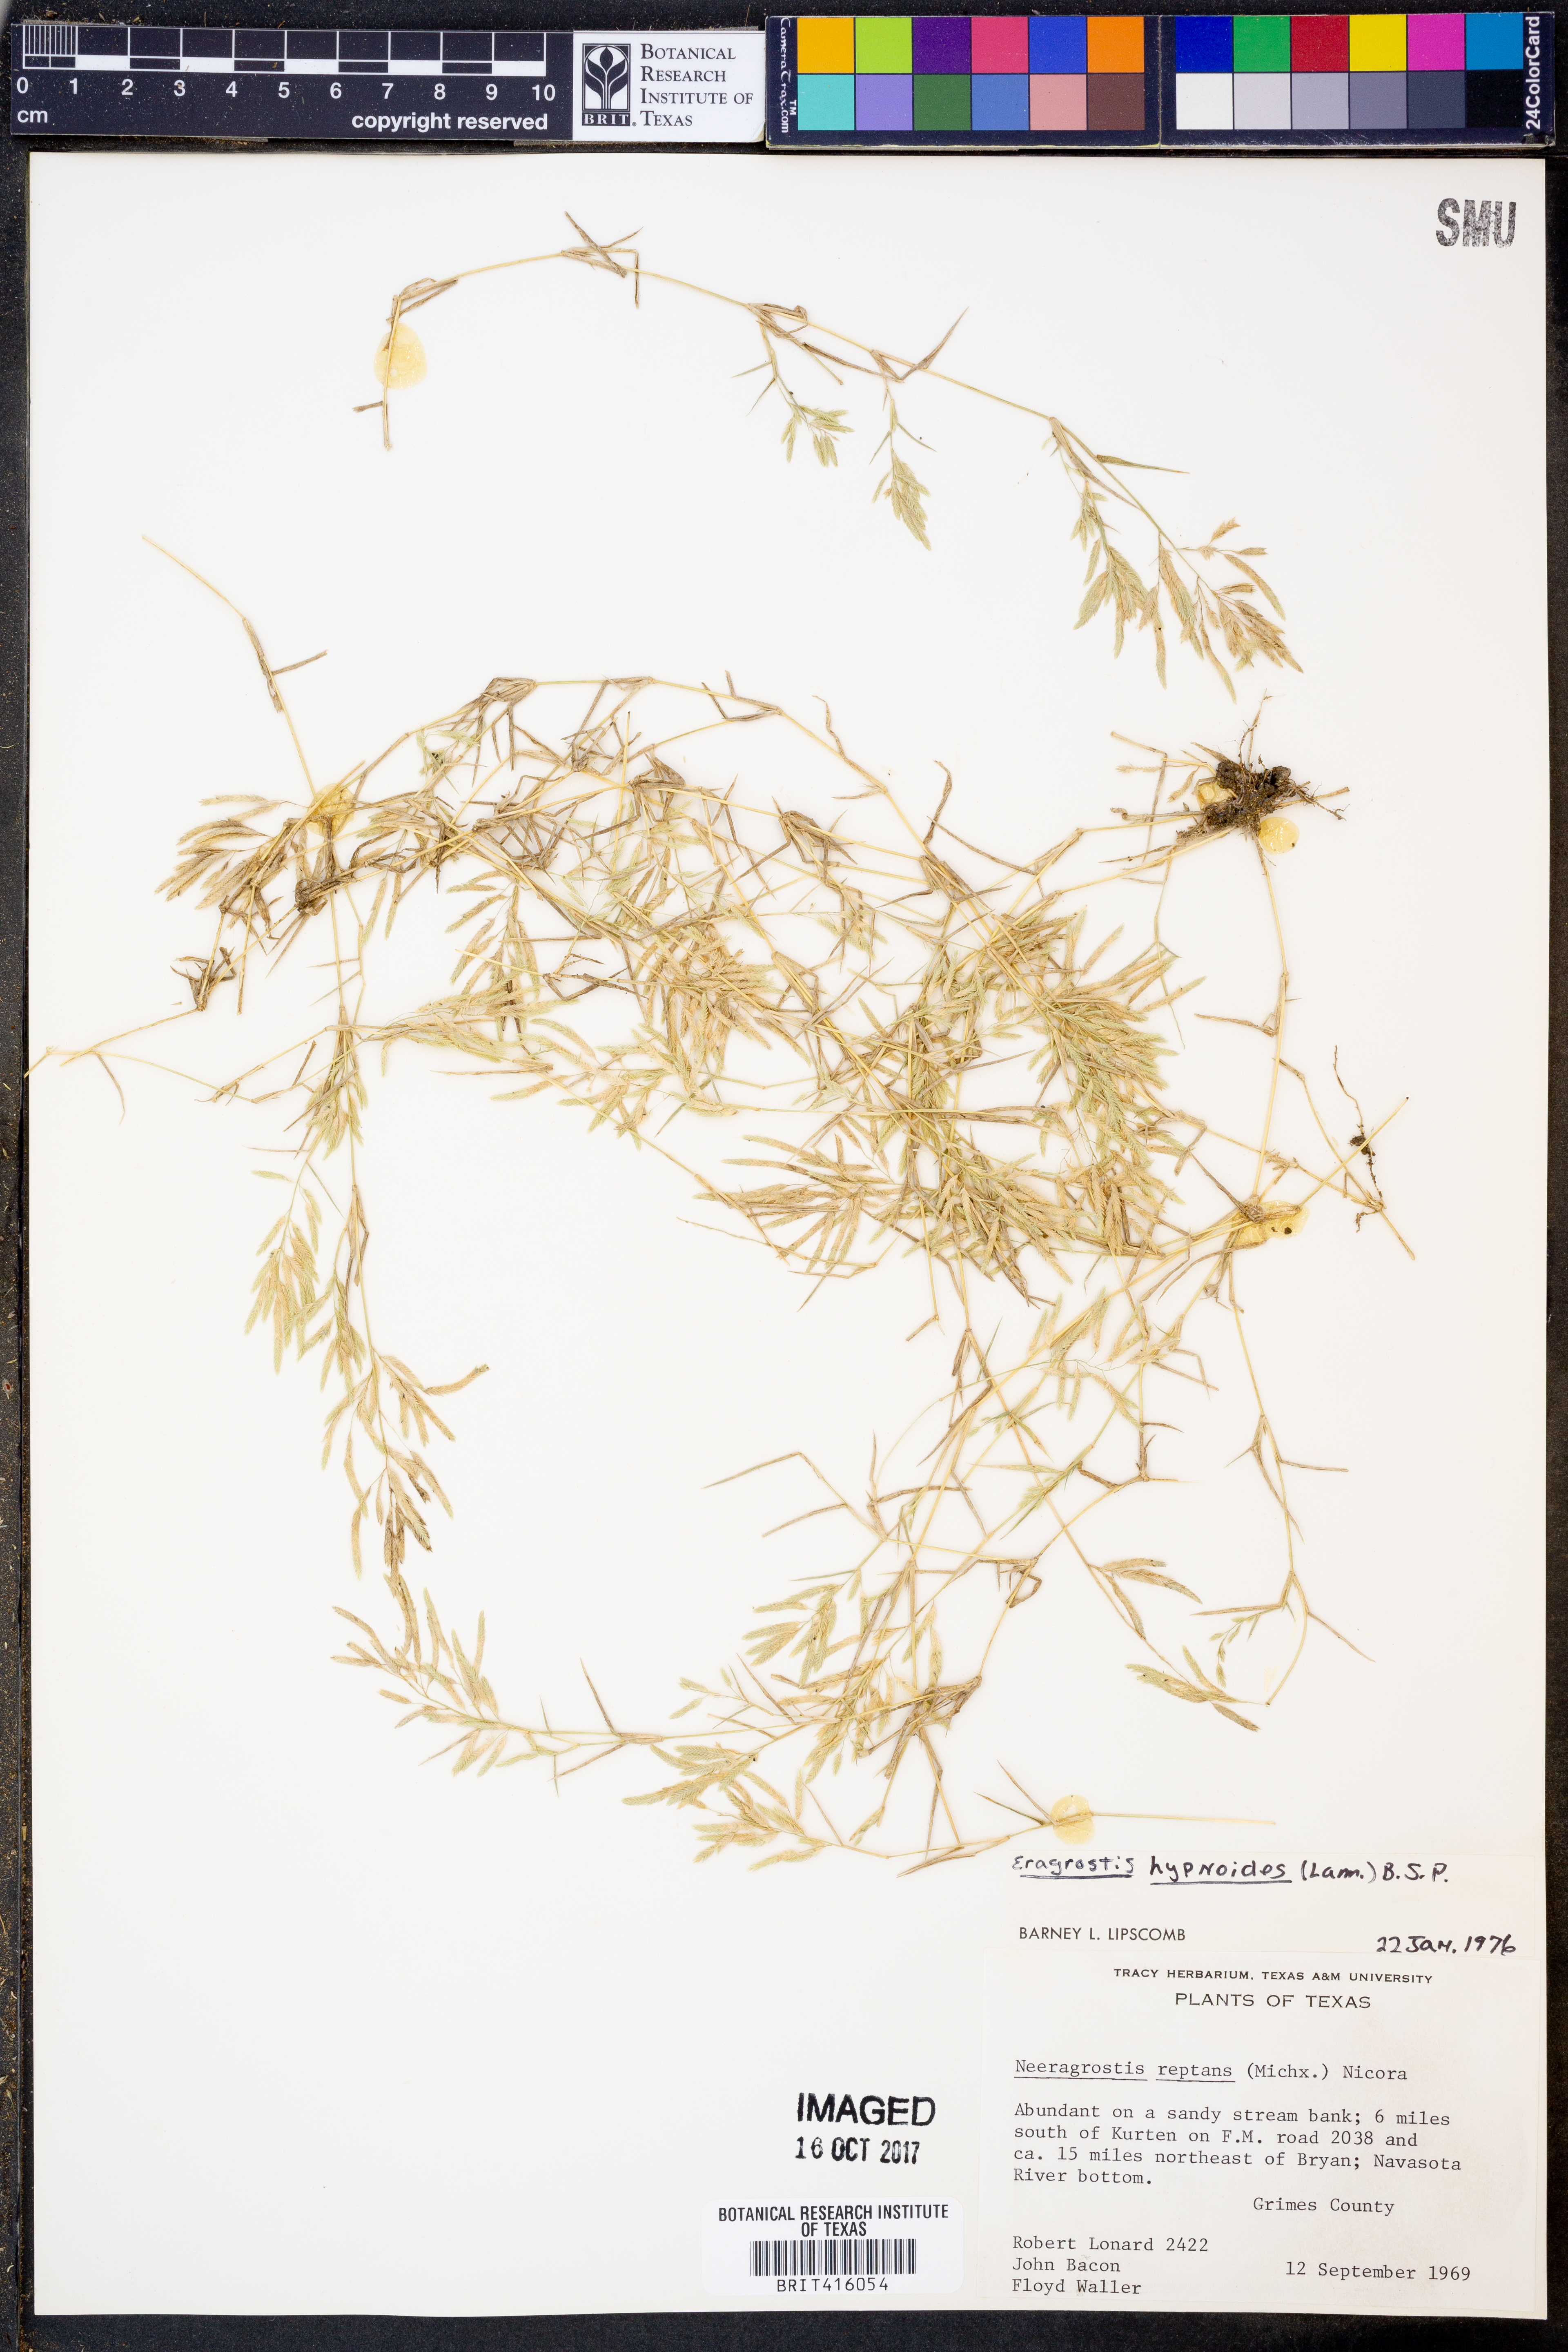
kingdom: Plantae
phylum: Tracheophyta
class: Liliopsida
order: Poales
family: Poaceae
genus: Eragrostis
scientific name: Eragrostis hypnoides
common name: Creeping love grass
